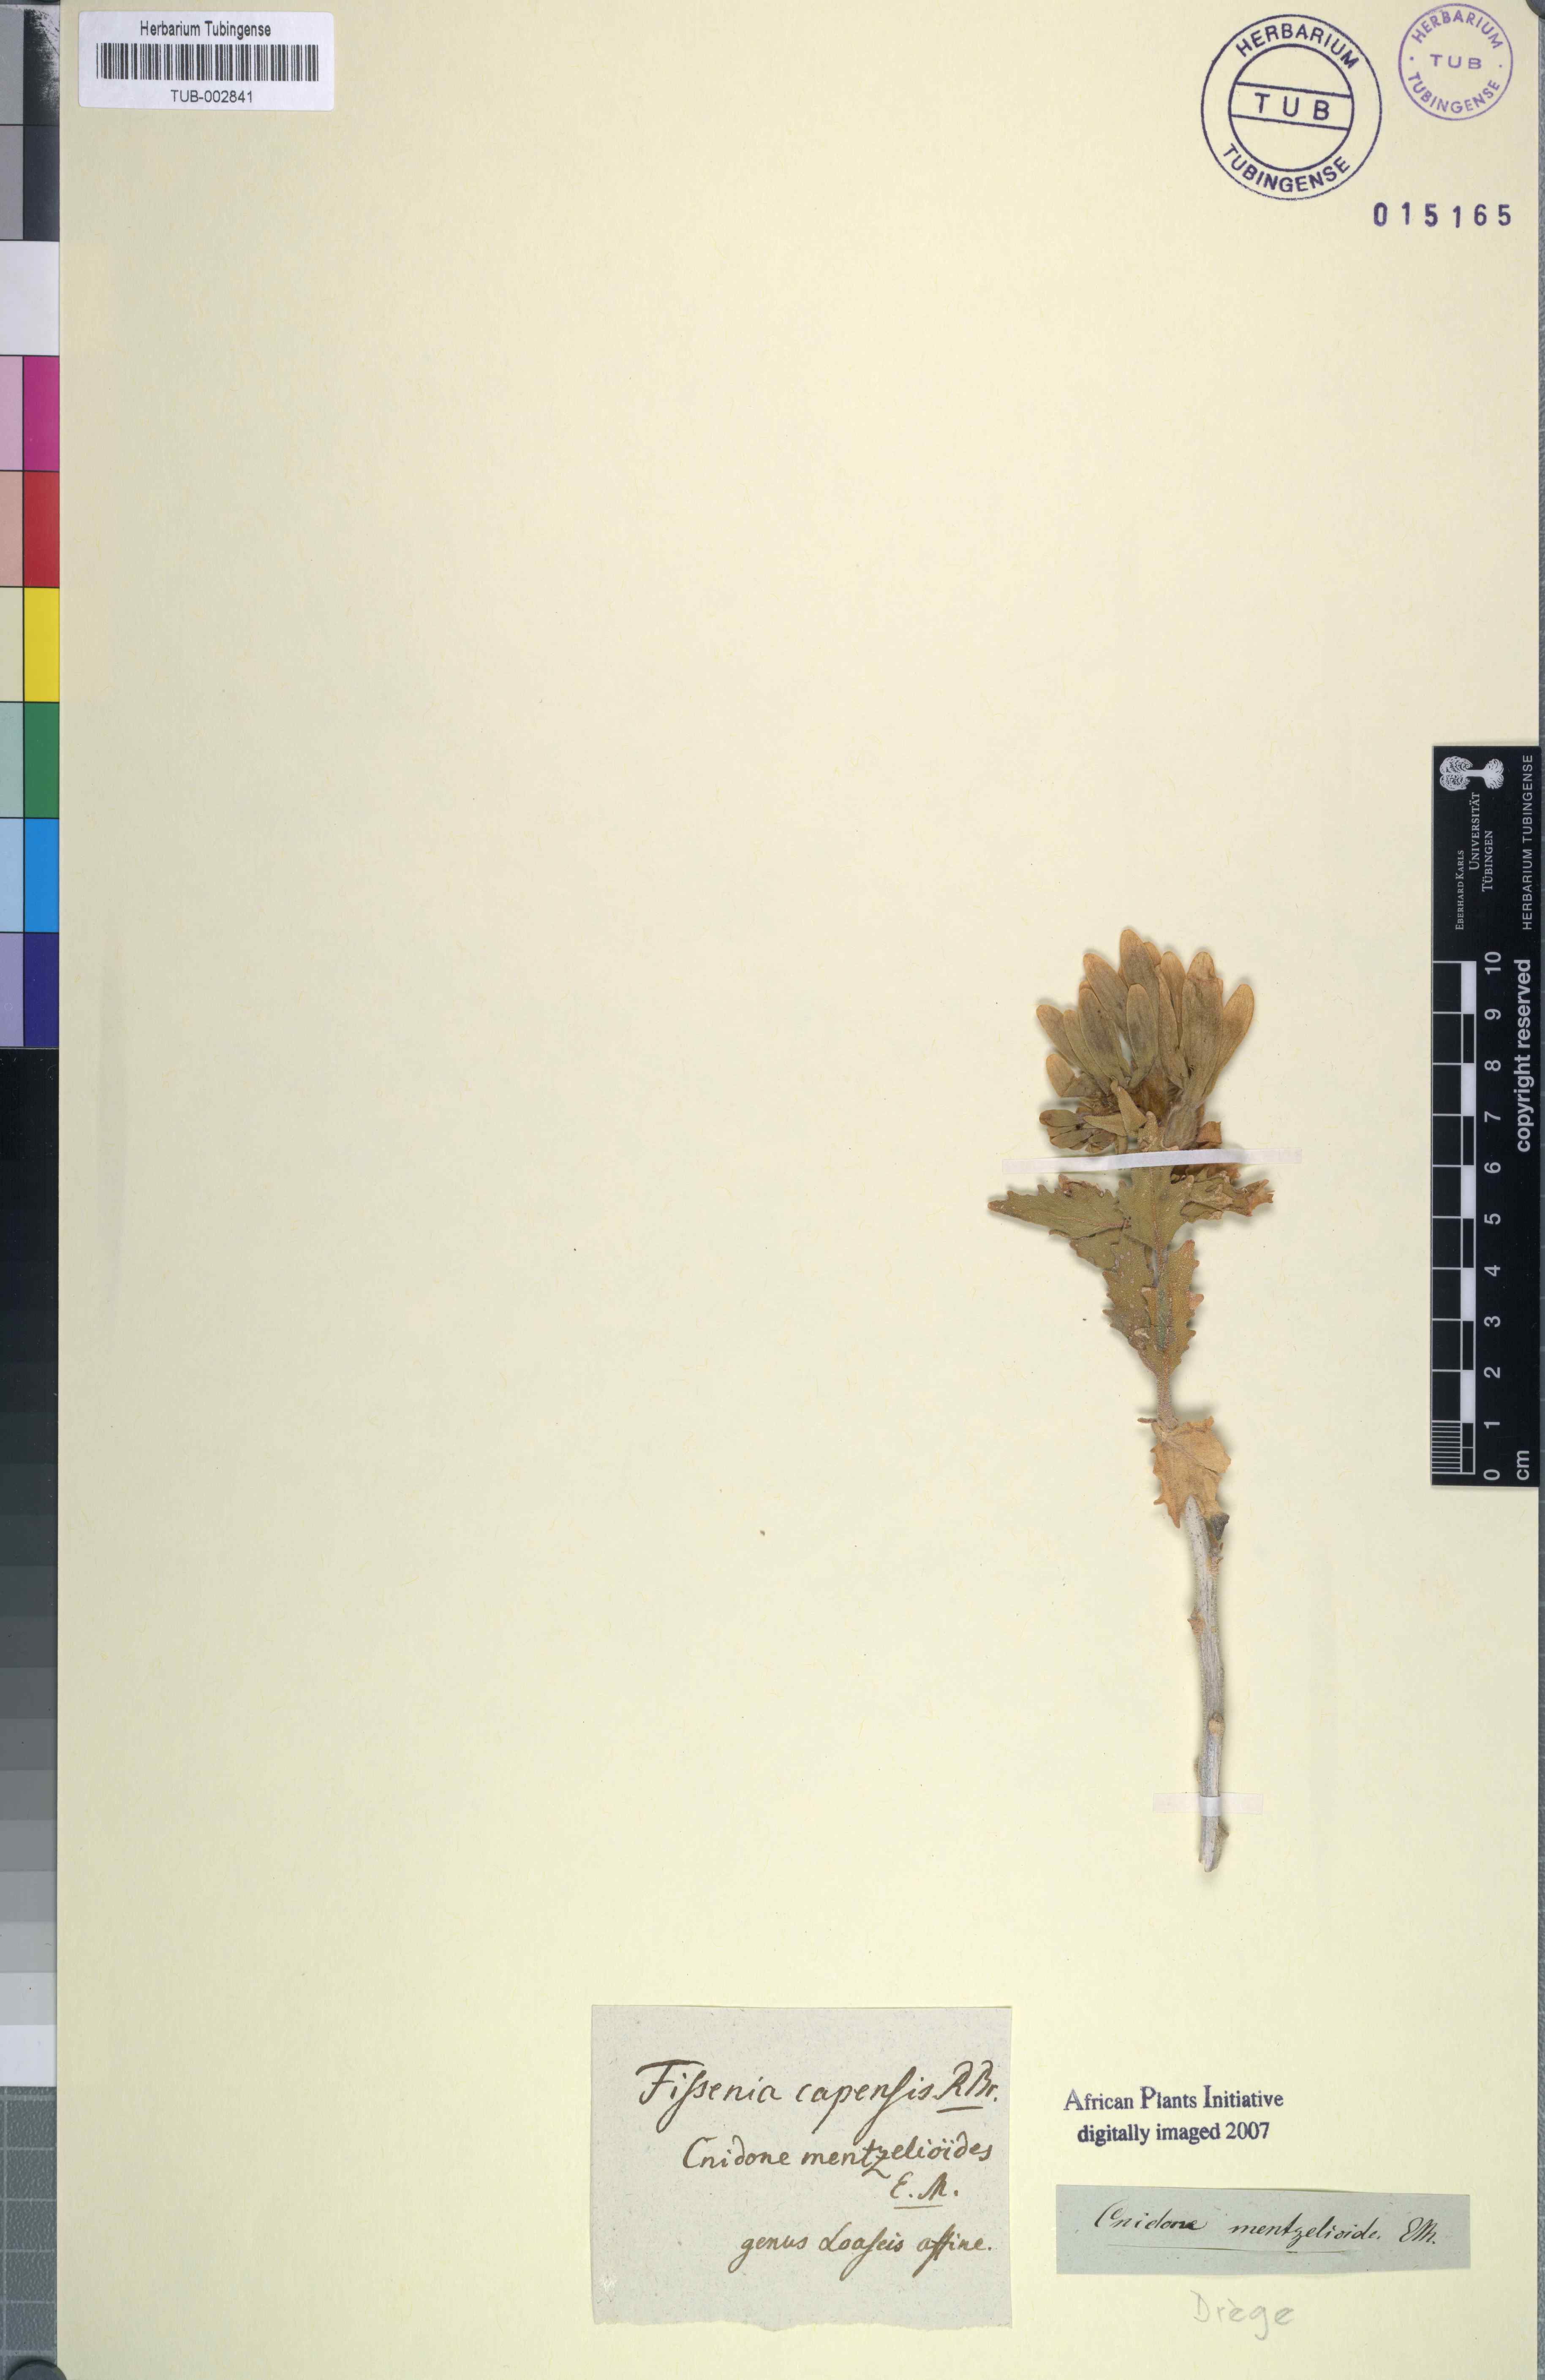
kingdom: Plantae
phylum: Tracheophyta
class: Magnoliopsida
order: Cornales
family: Loasaceae
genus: Kissenia
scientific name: Kissenia capensis
